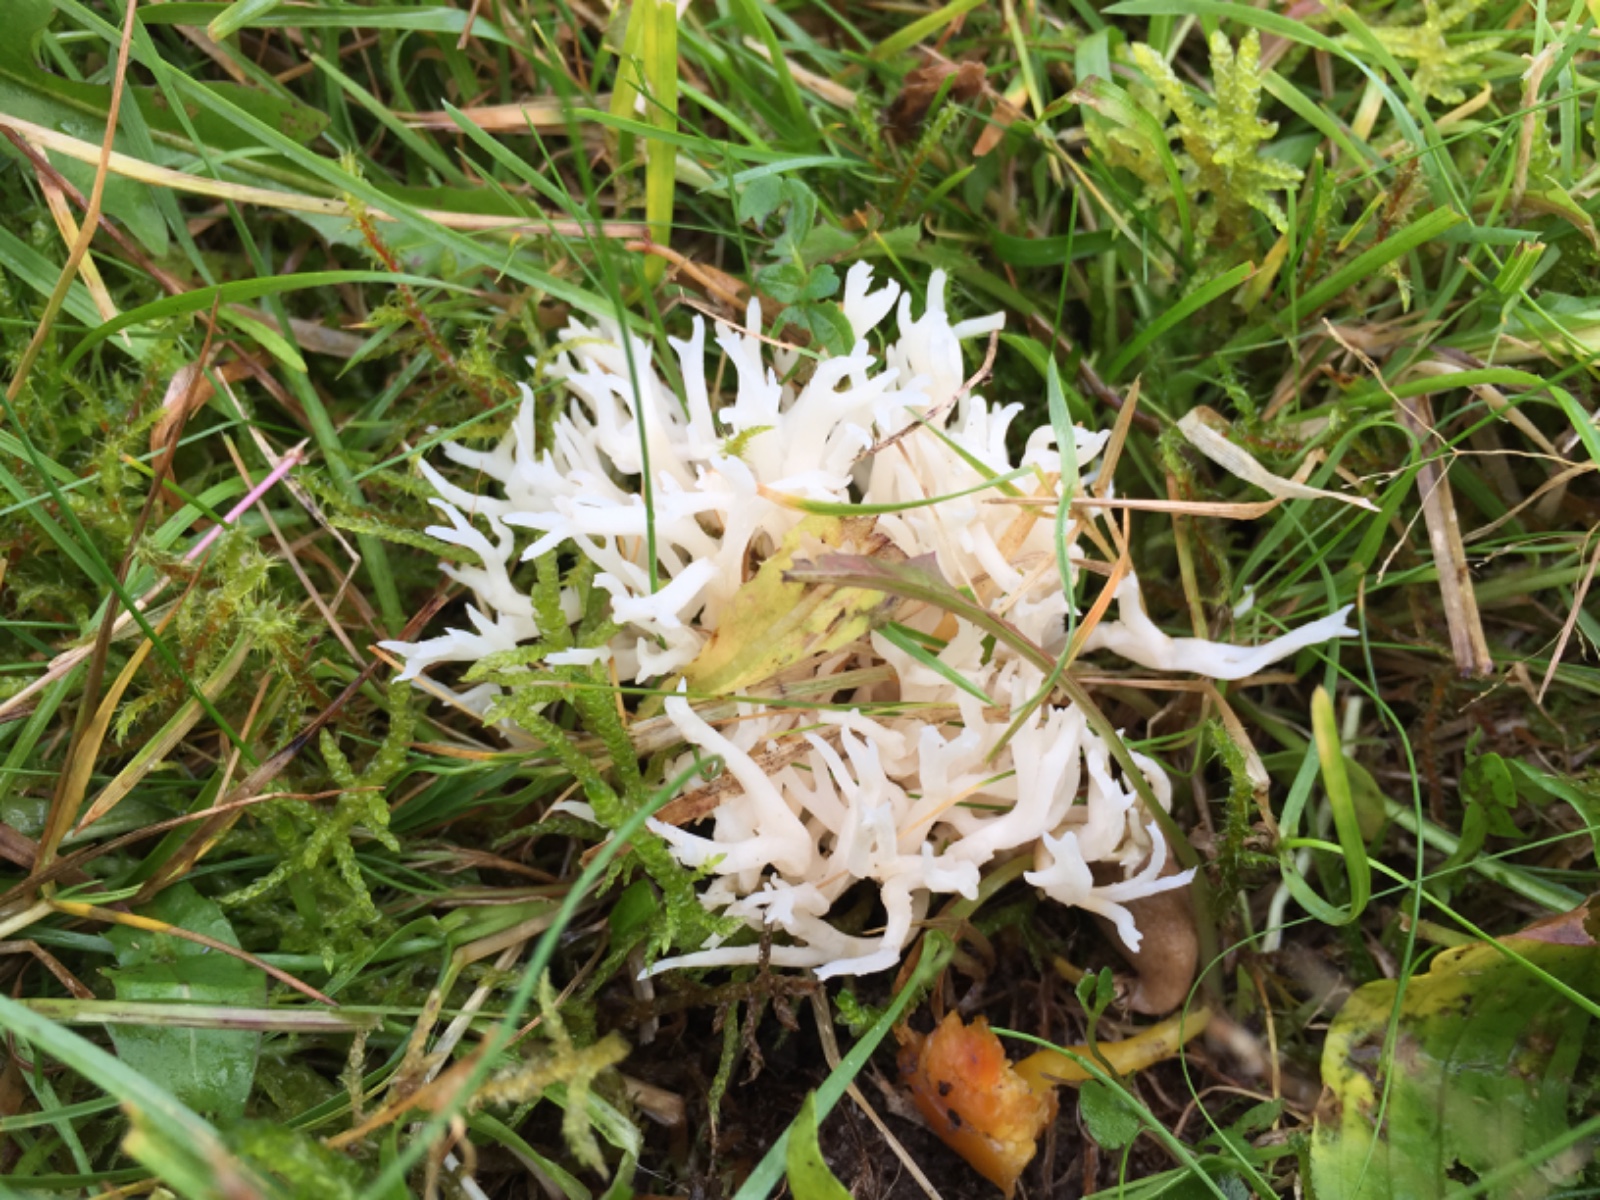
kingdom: Fungi
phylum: Basidiomycota
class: Agaricomycetes
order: Agaricales
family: Clavariaceae
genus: Ramariopsis
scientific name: Ramariopsis robusta
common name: tykgrenet køllesvamp
